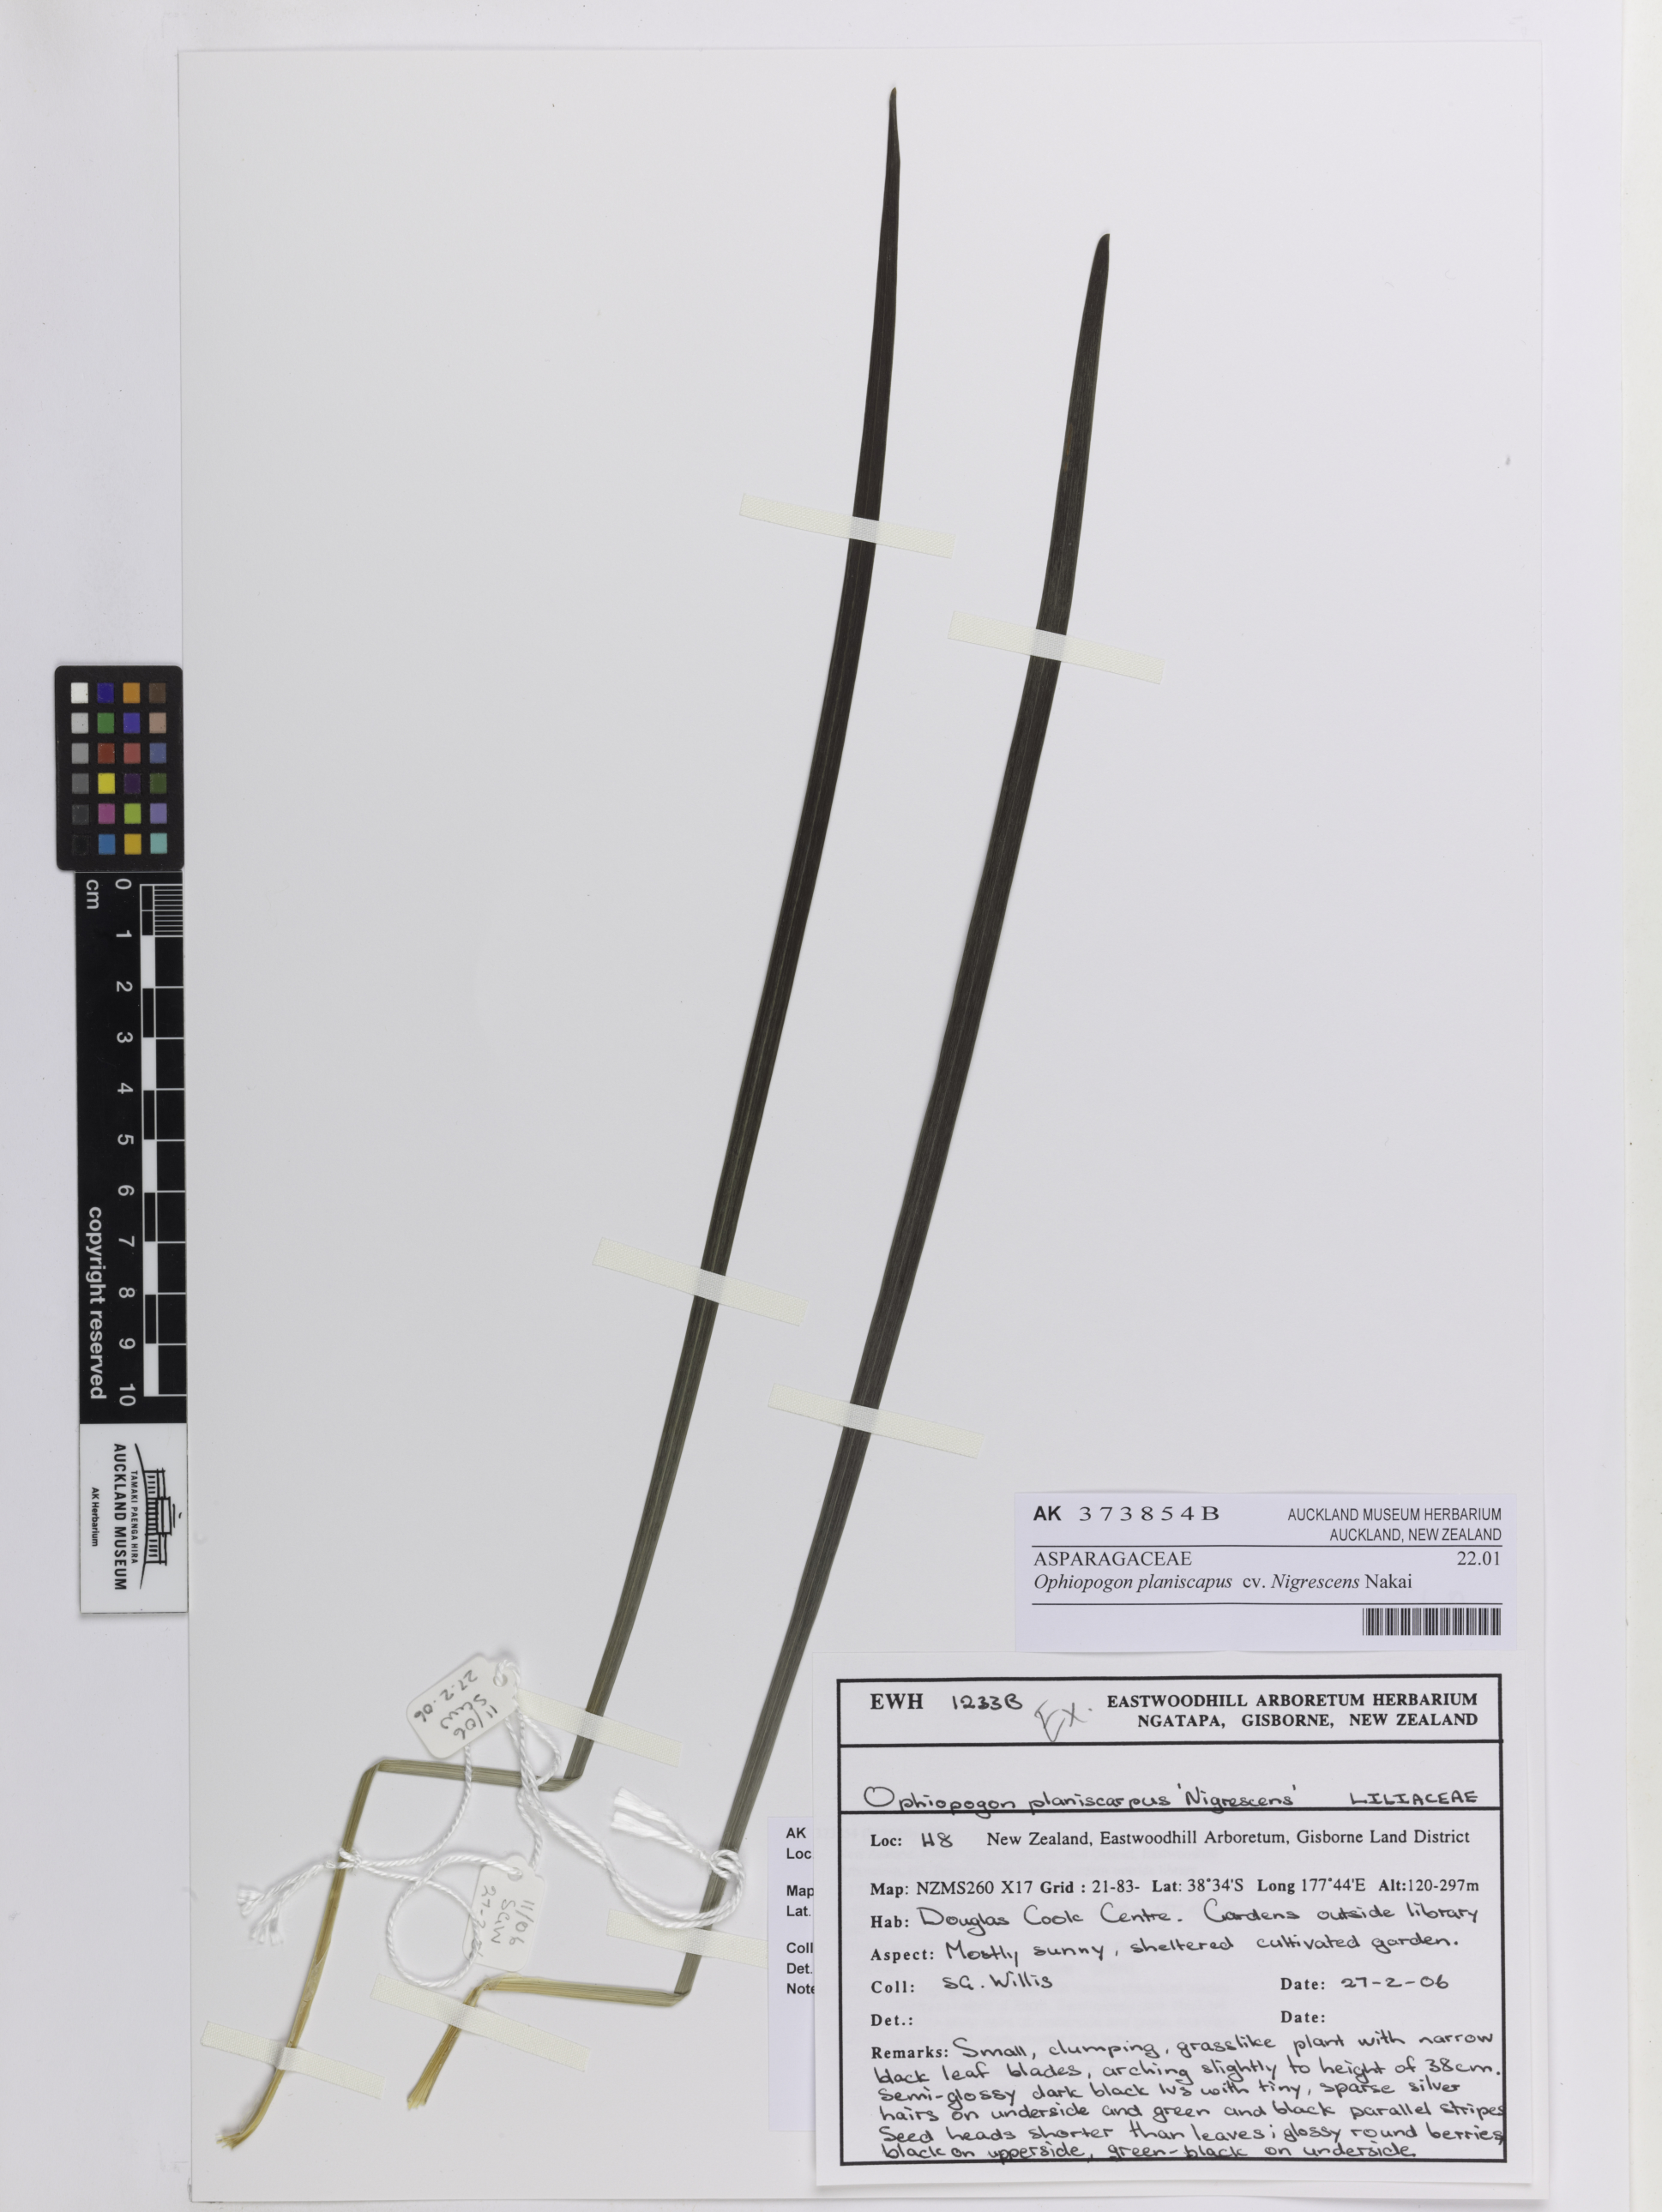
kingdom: Plantae
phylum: Tracheophyta
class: Liliopsida
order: Asparagales
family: Asparagaceae
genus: Ophiopogon
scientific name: Ophiopogon planiscapus
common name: Black mondo
